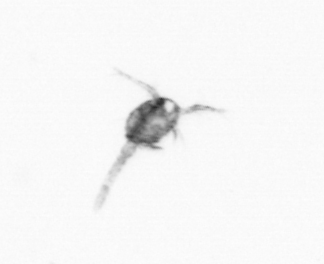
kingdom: Animalia
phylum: Arthropoda
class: Copepoda
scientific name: Copepoda
